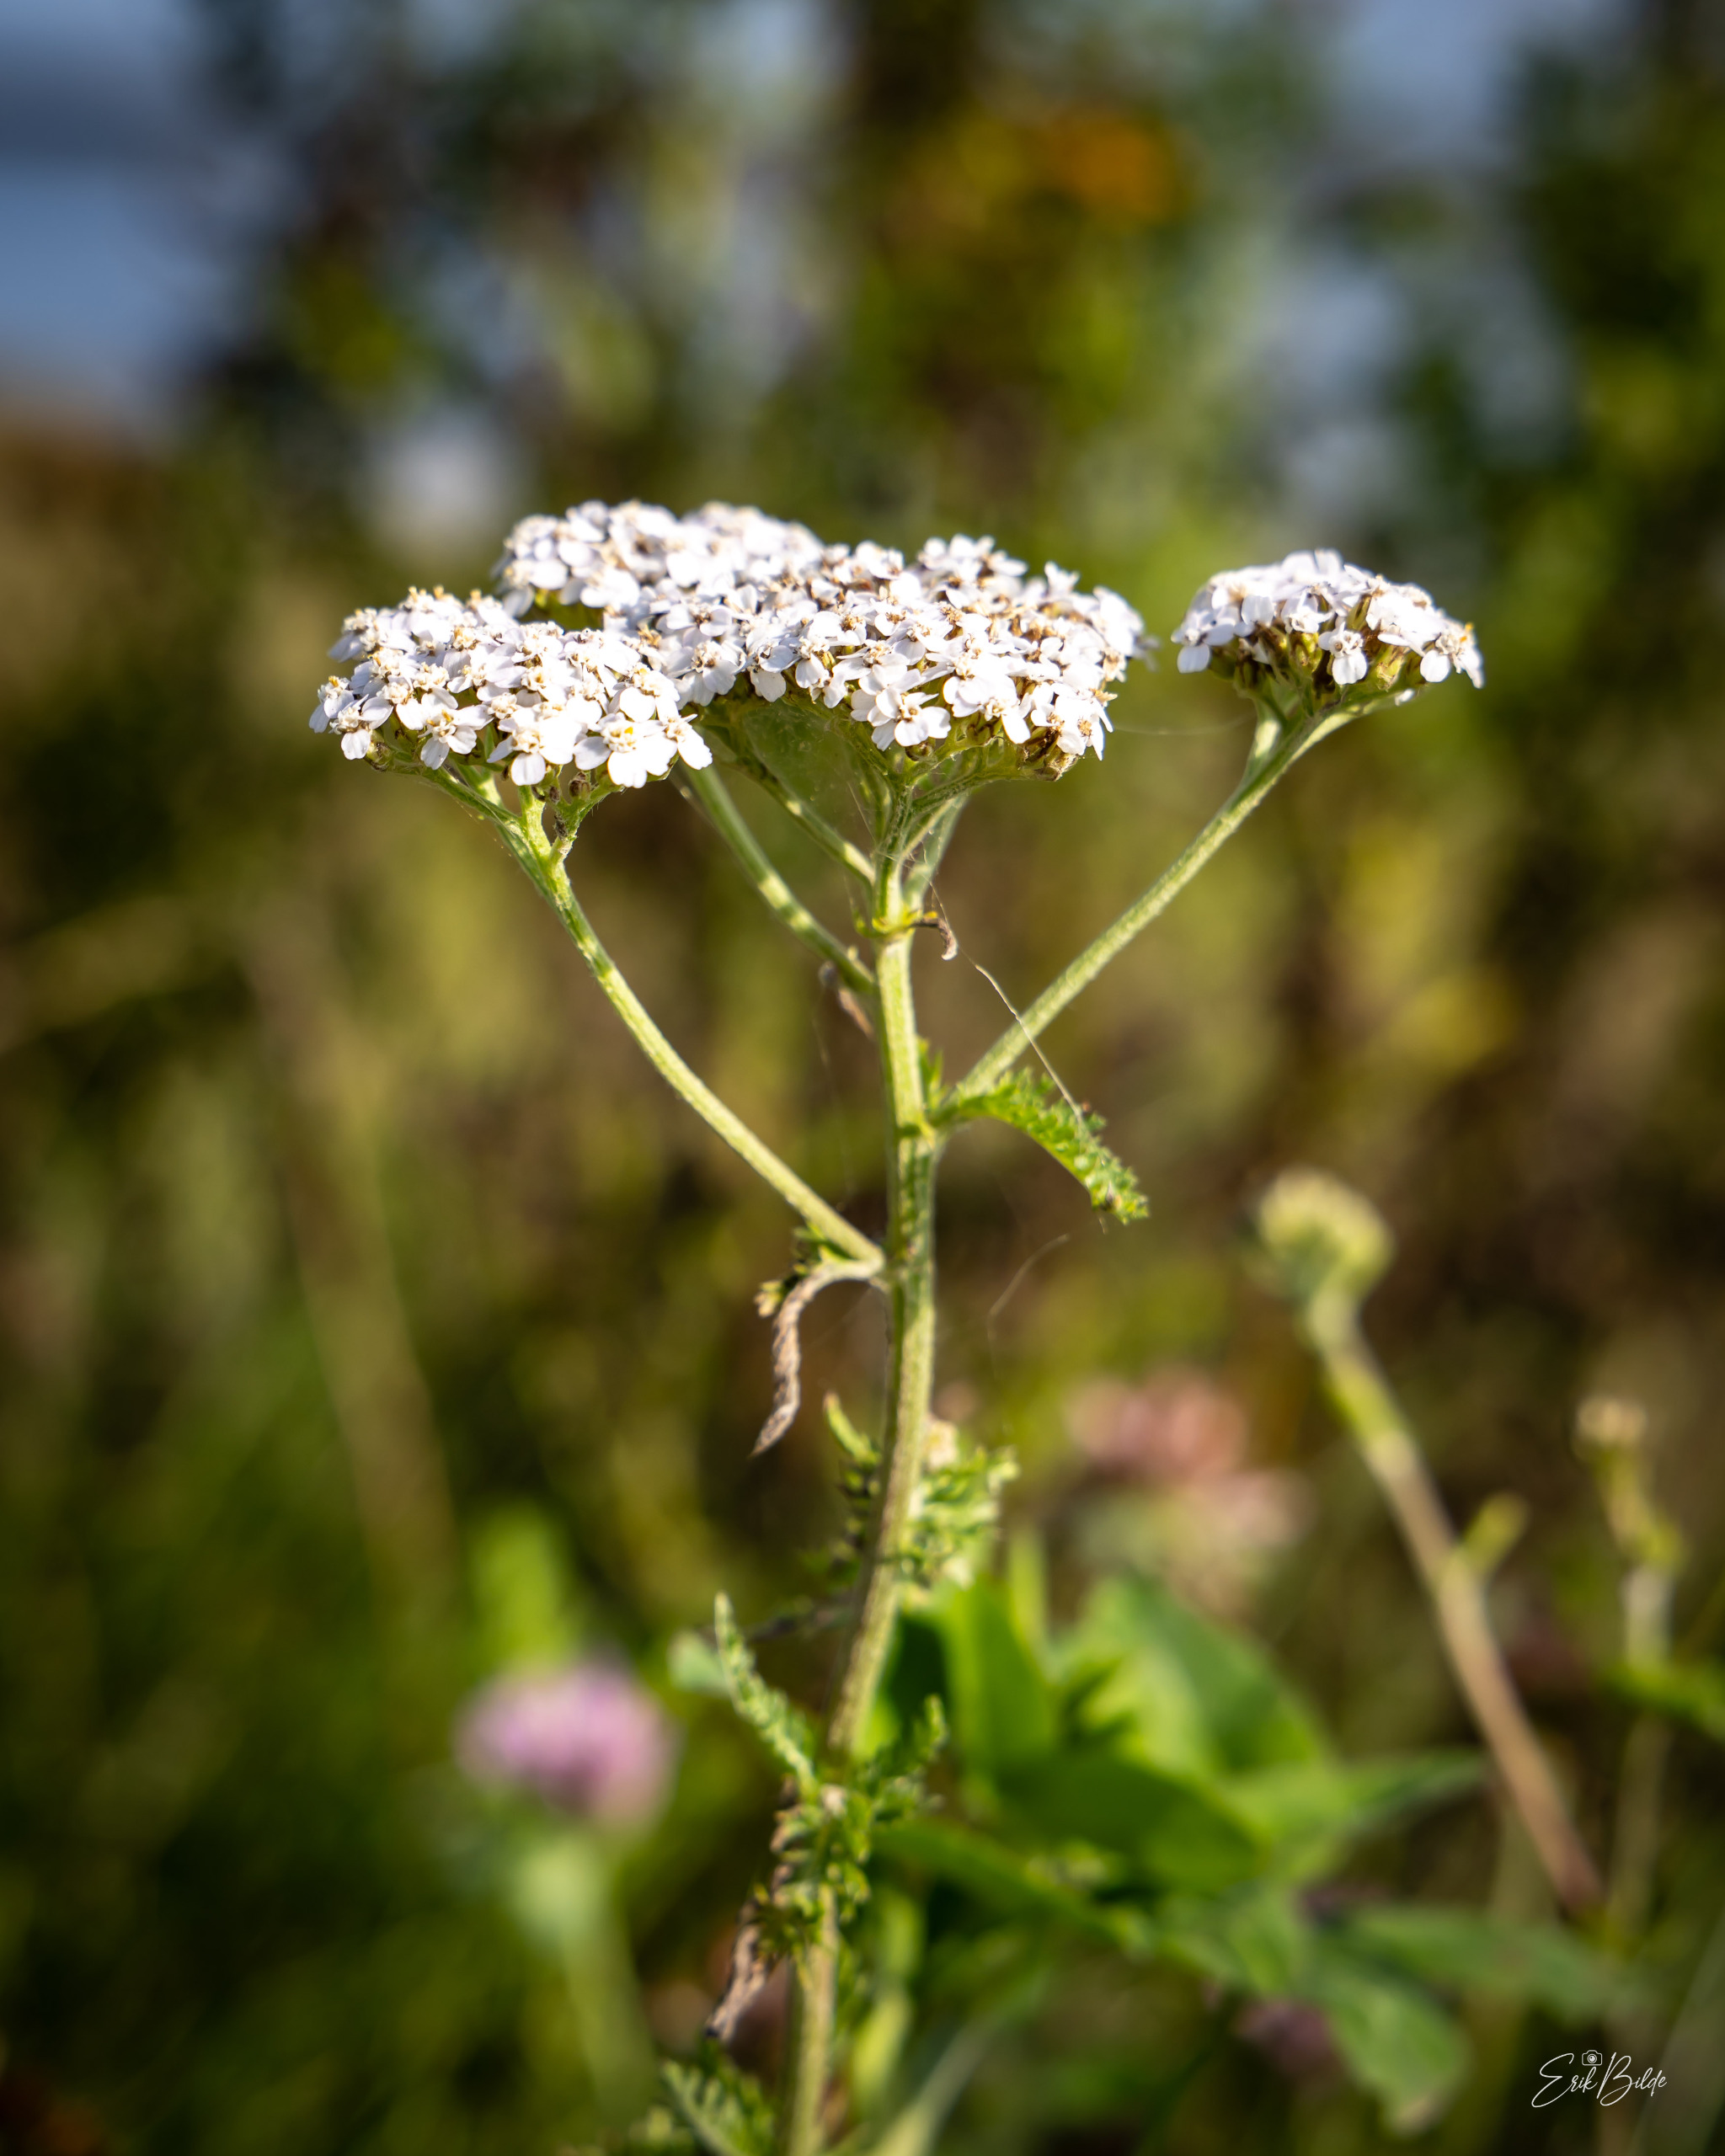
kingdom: Plantae
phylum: Tracheophyta
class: Magnoliopsida
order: Asterales
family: Asteraceae
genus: Achillea
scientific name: Achillea millefolium
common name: Almindelig røllike
